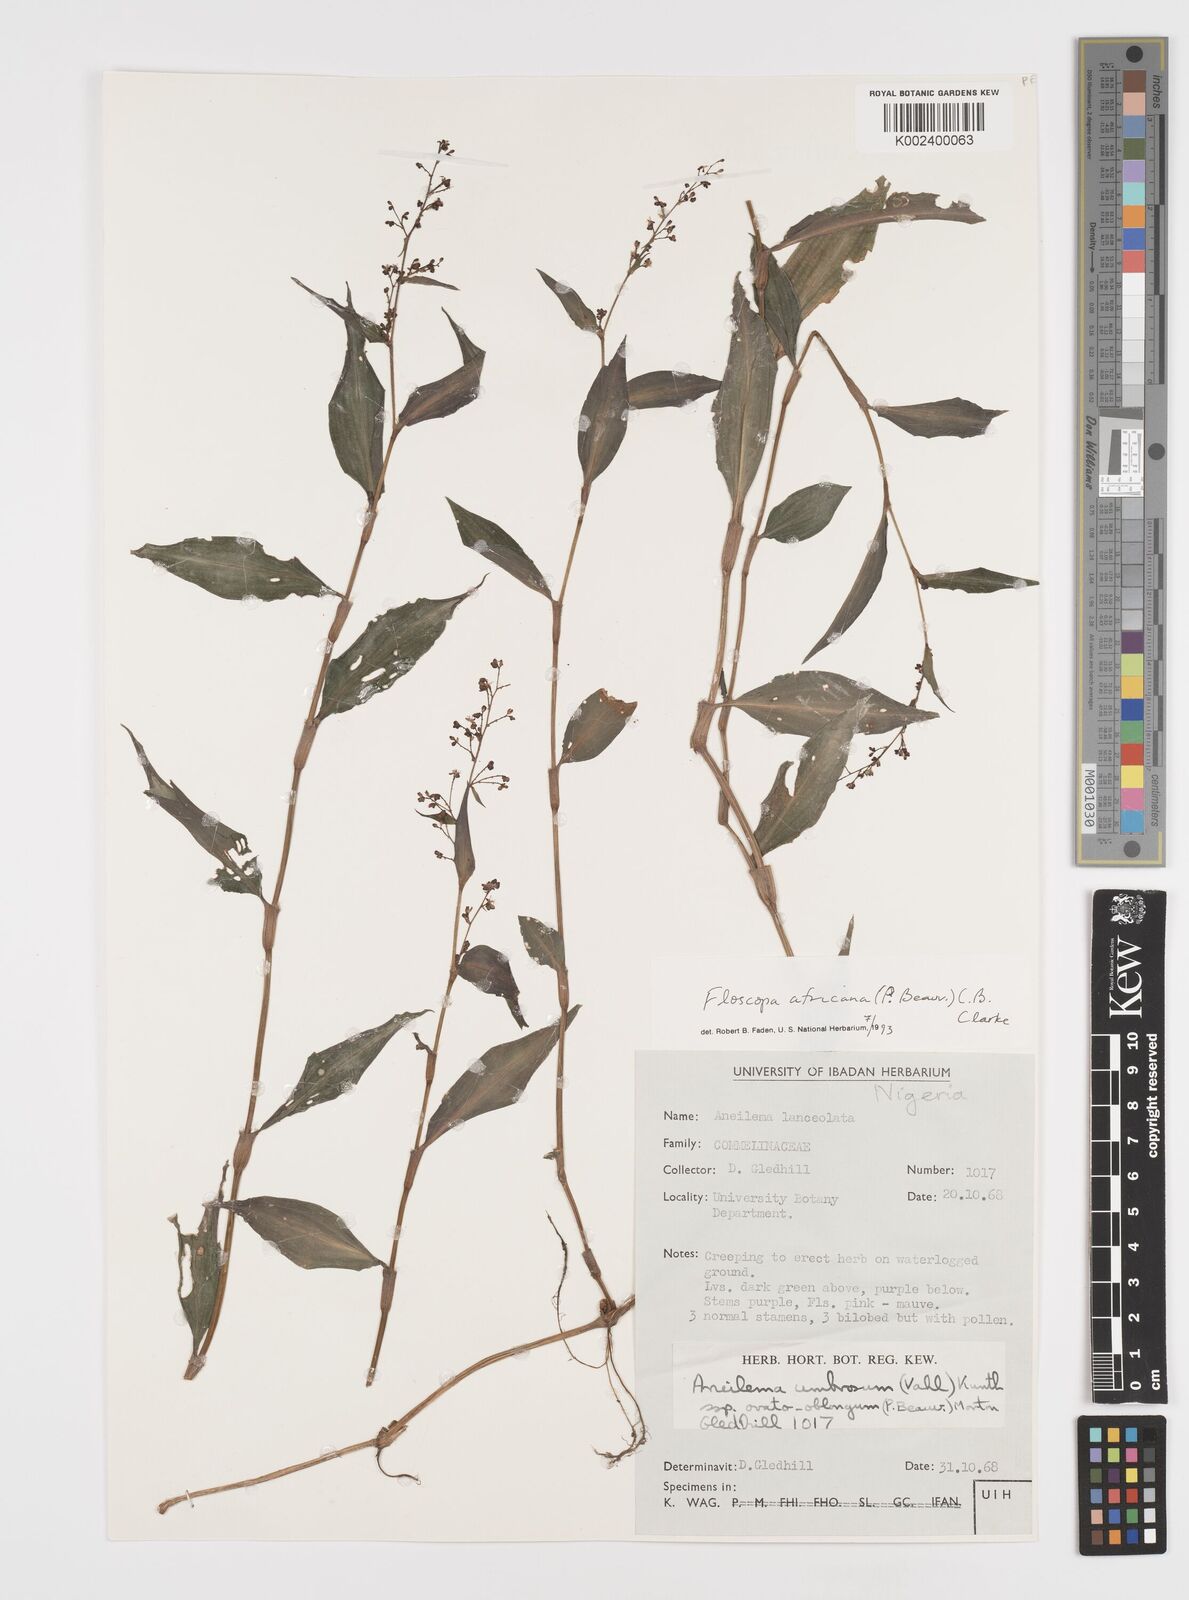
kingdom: Plantae
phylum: Tracheophyta
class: Liliopsida
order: Commelinales
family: Commelinaceae
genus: Floscopa
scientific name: Floscopa africana
